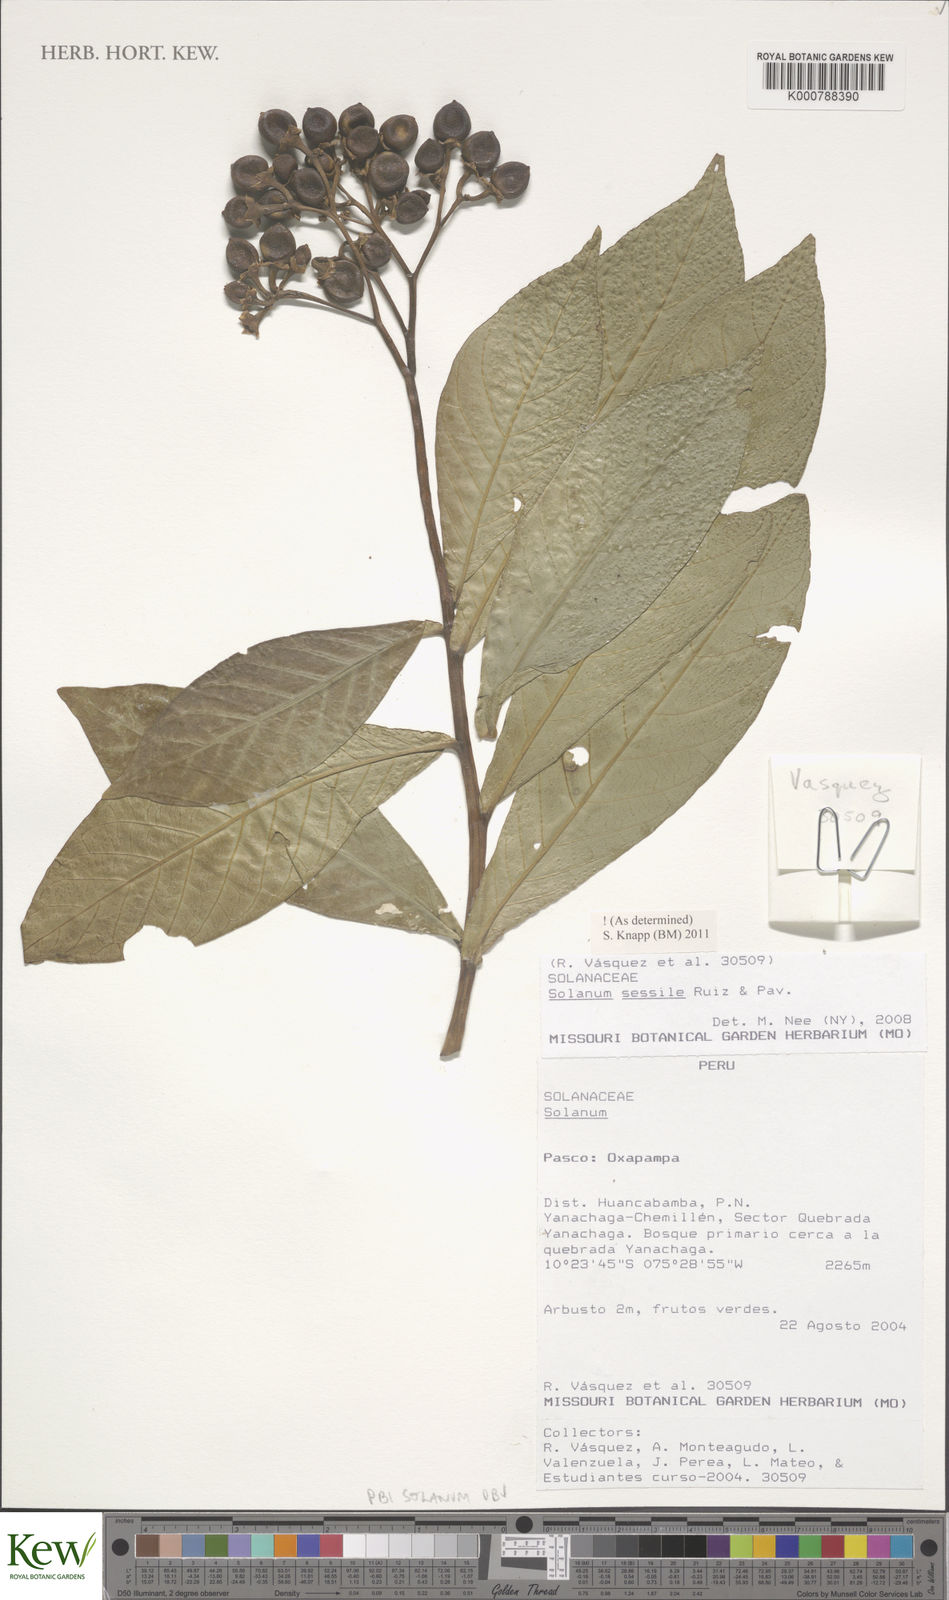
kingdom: Plantae
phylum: Tracheophyta
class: Magnoliopsida
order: Solanales
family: Solanaceae
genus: Solanum
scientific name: Solanum sessile
